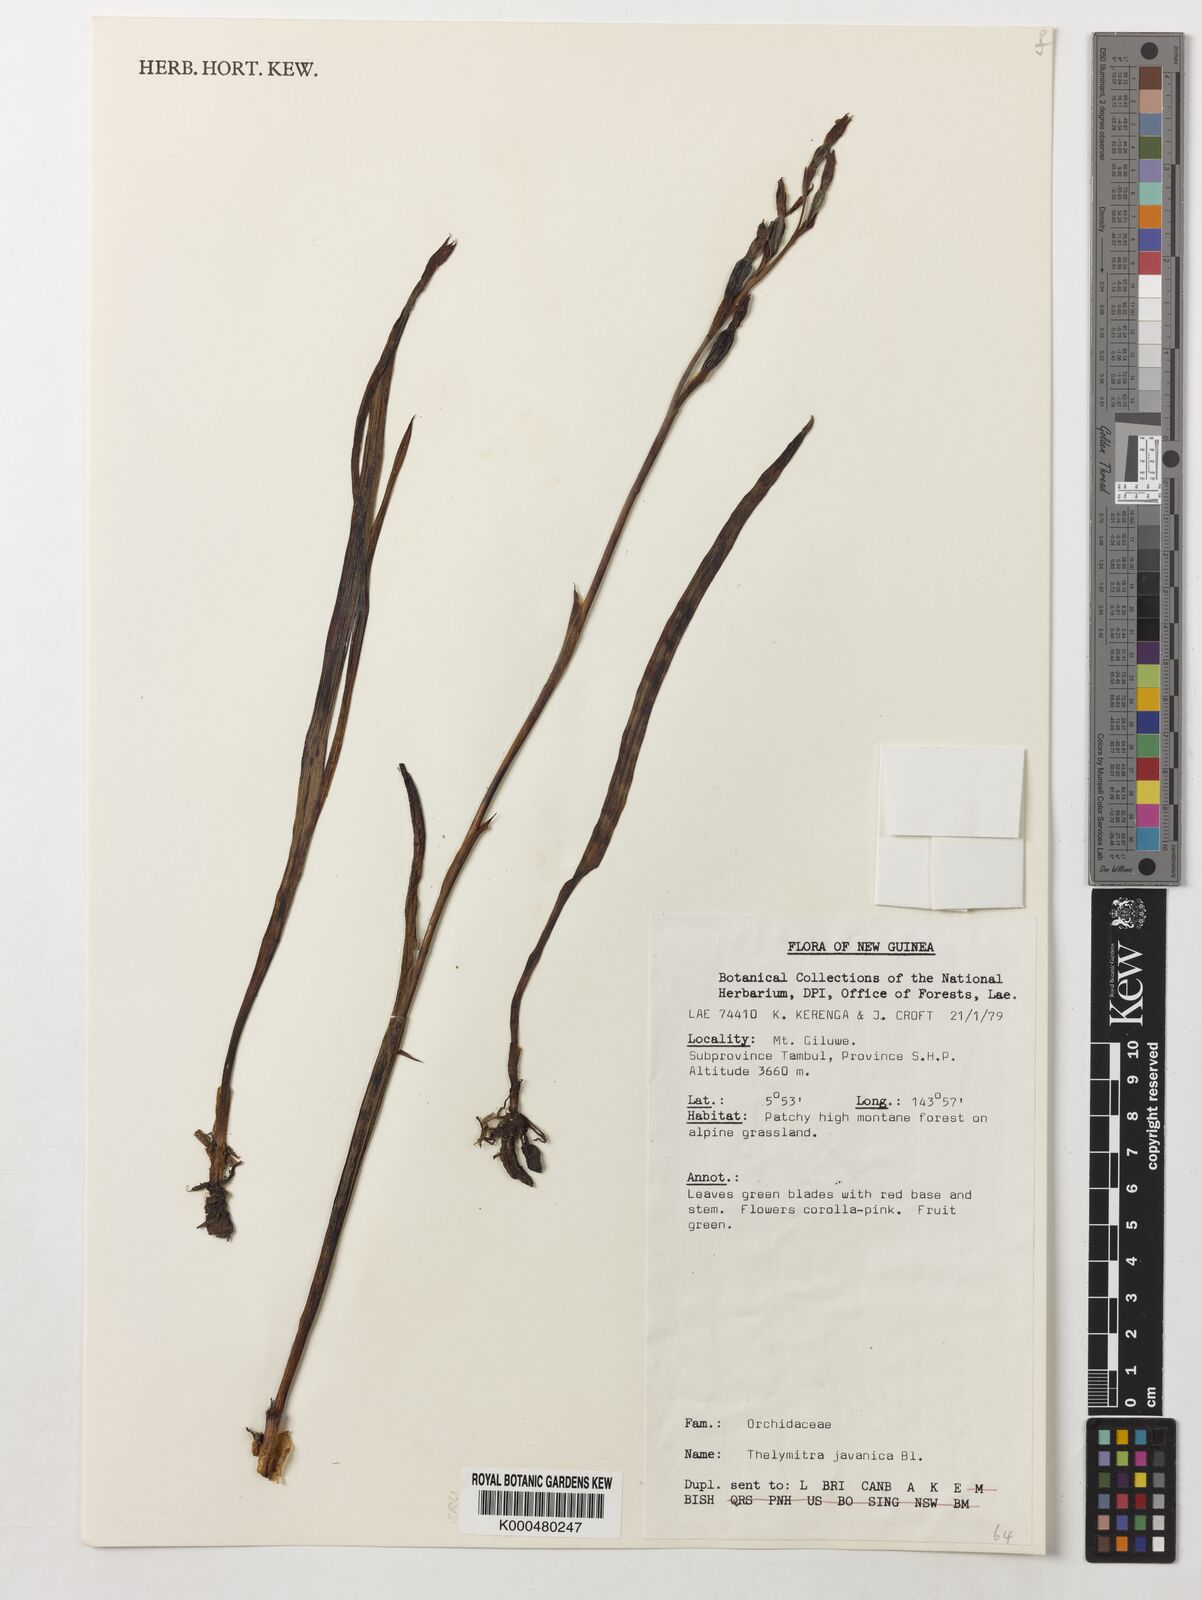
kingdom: Plantae
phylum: Tracheophyta
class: Liliopsida
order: Asparagales
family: Orchidaceae
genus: Thelymitra
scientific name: Thelymitra papuana
